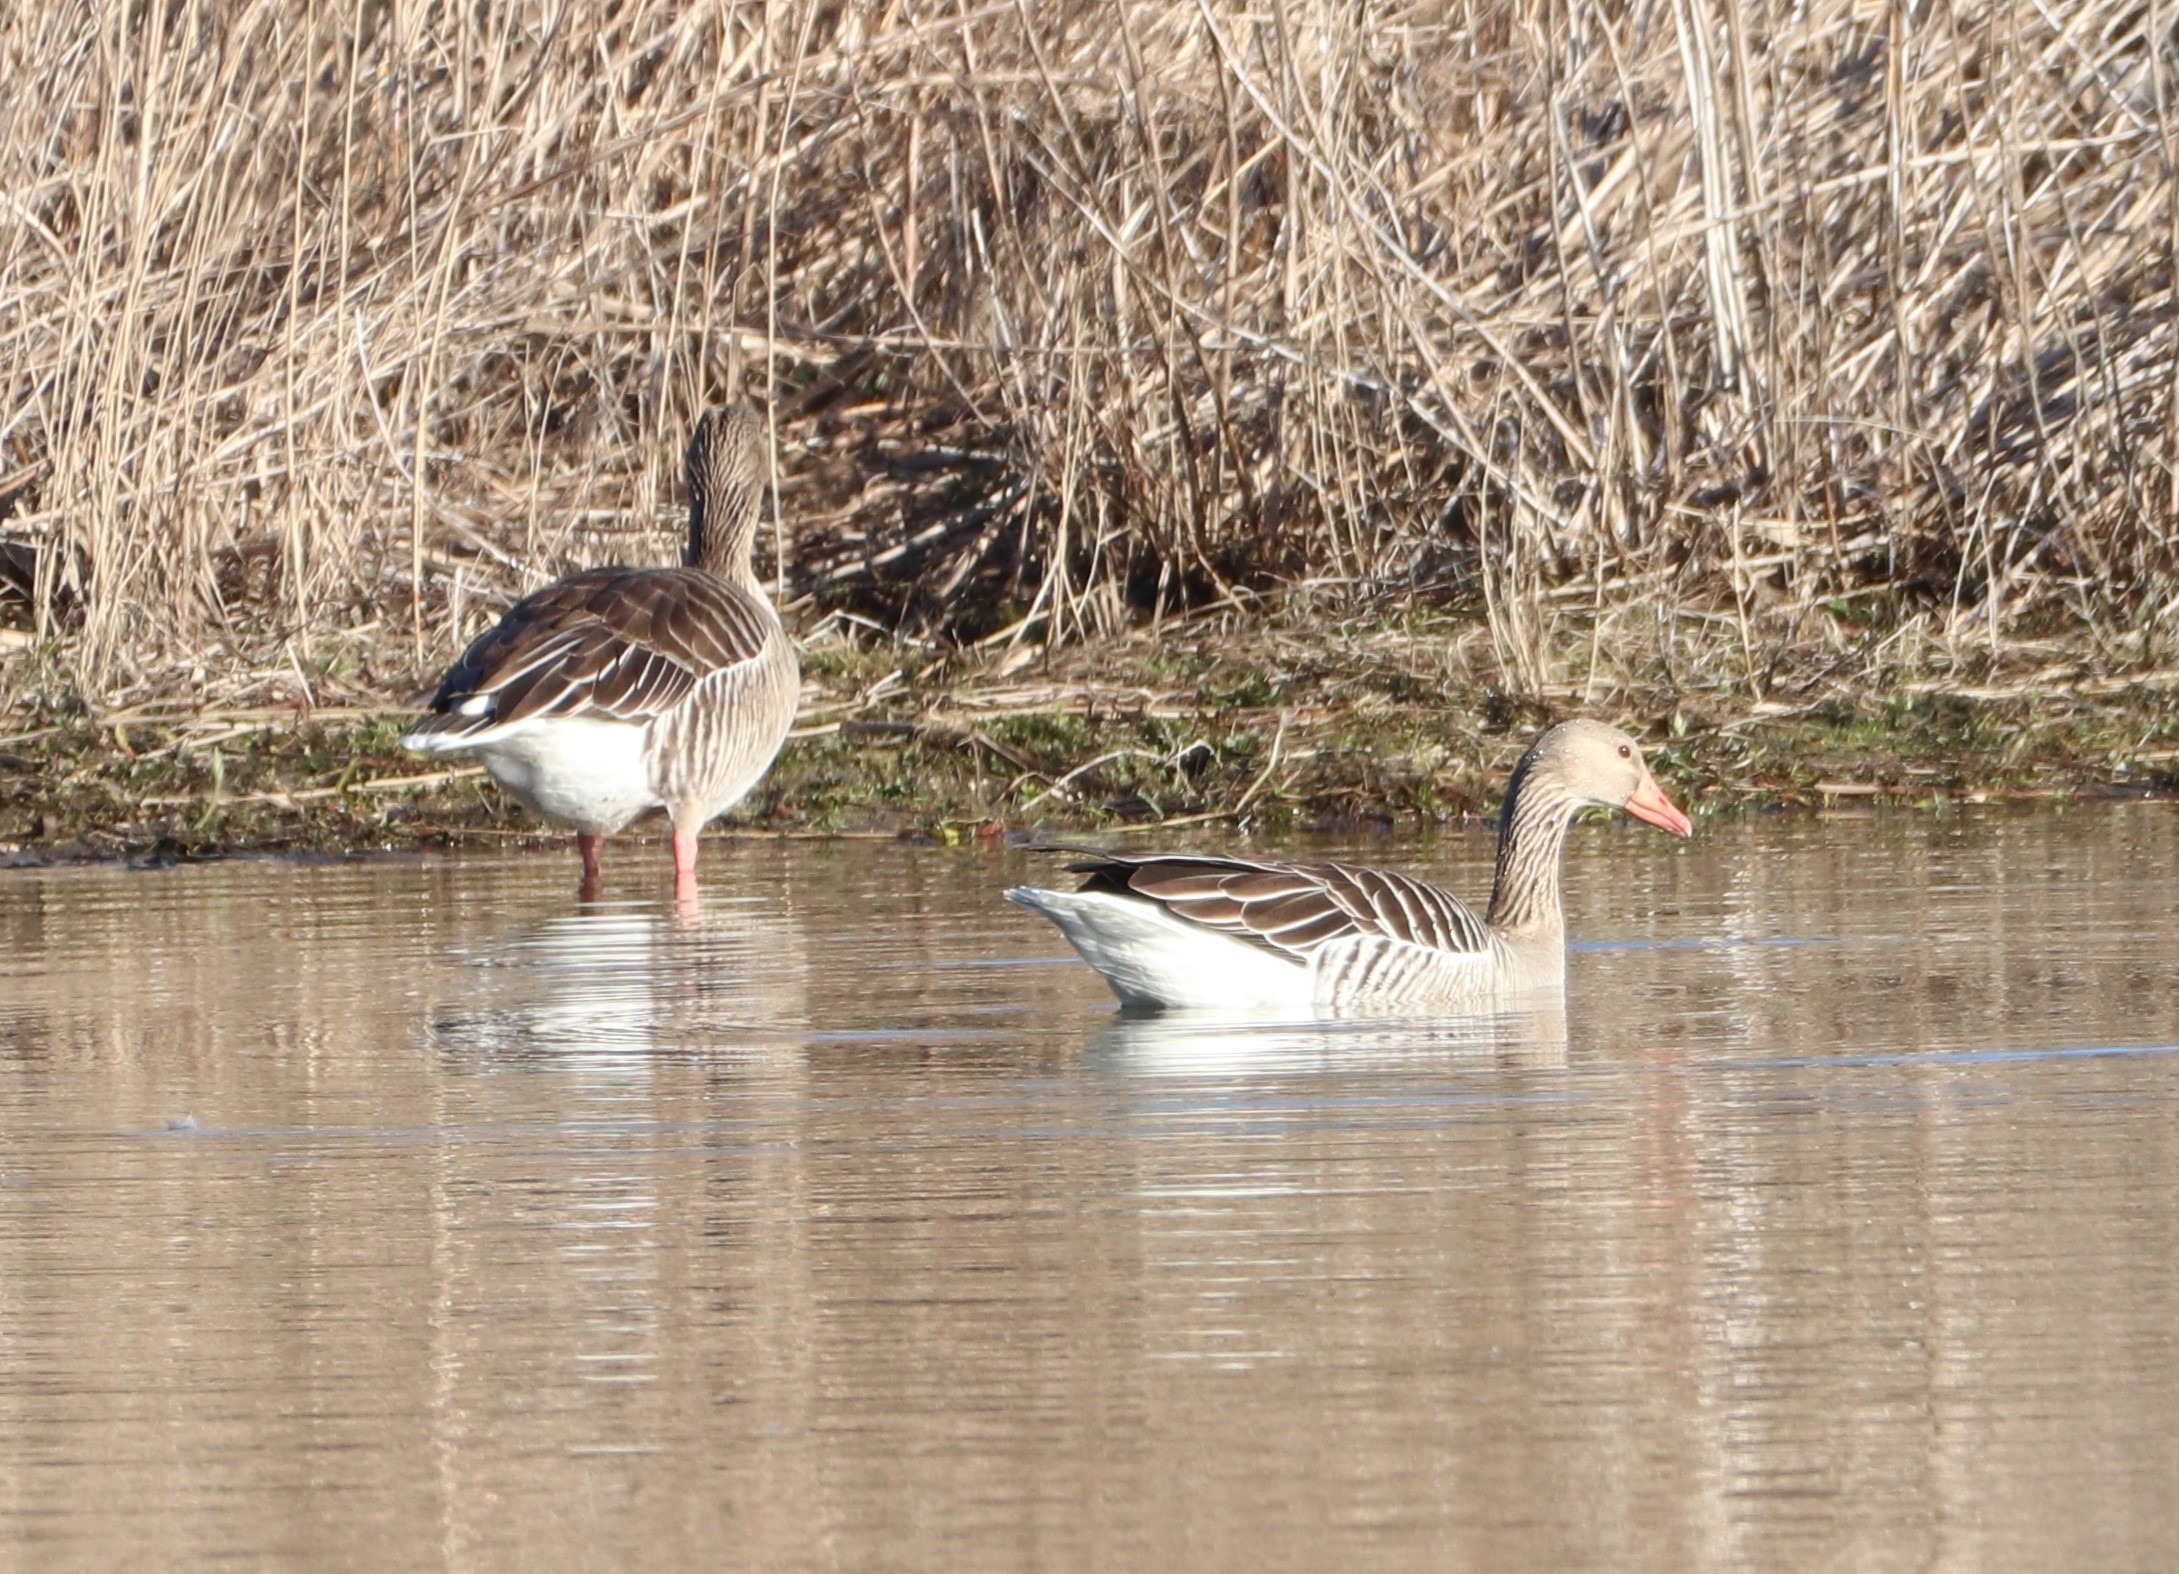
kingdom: Animalia
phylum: Chordata
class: Aves
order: Anseriformes
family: Anatidae
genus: Anser
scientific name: Anser anser
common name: Grågås
